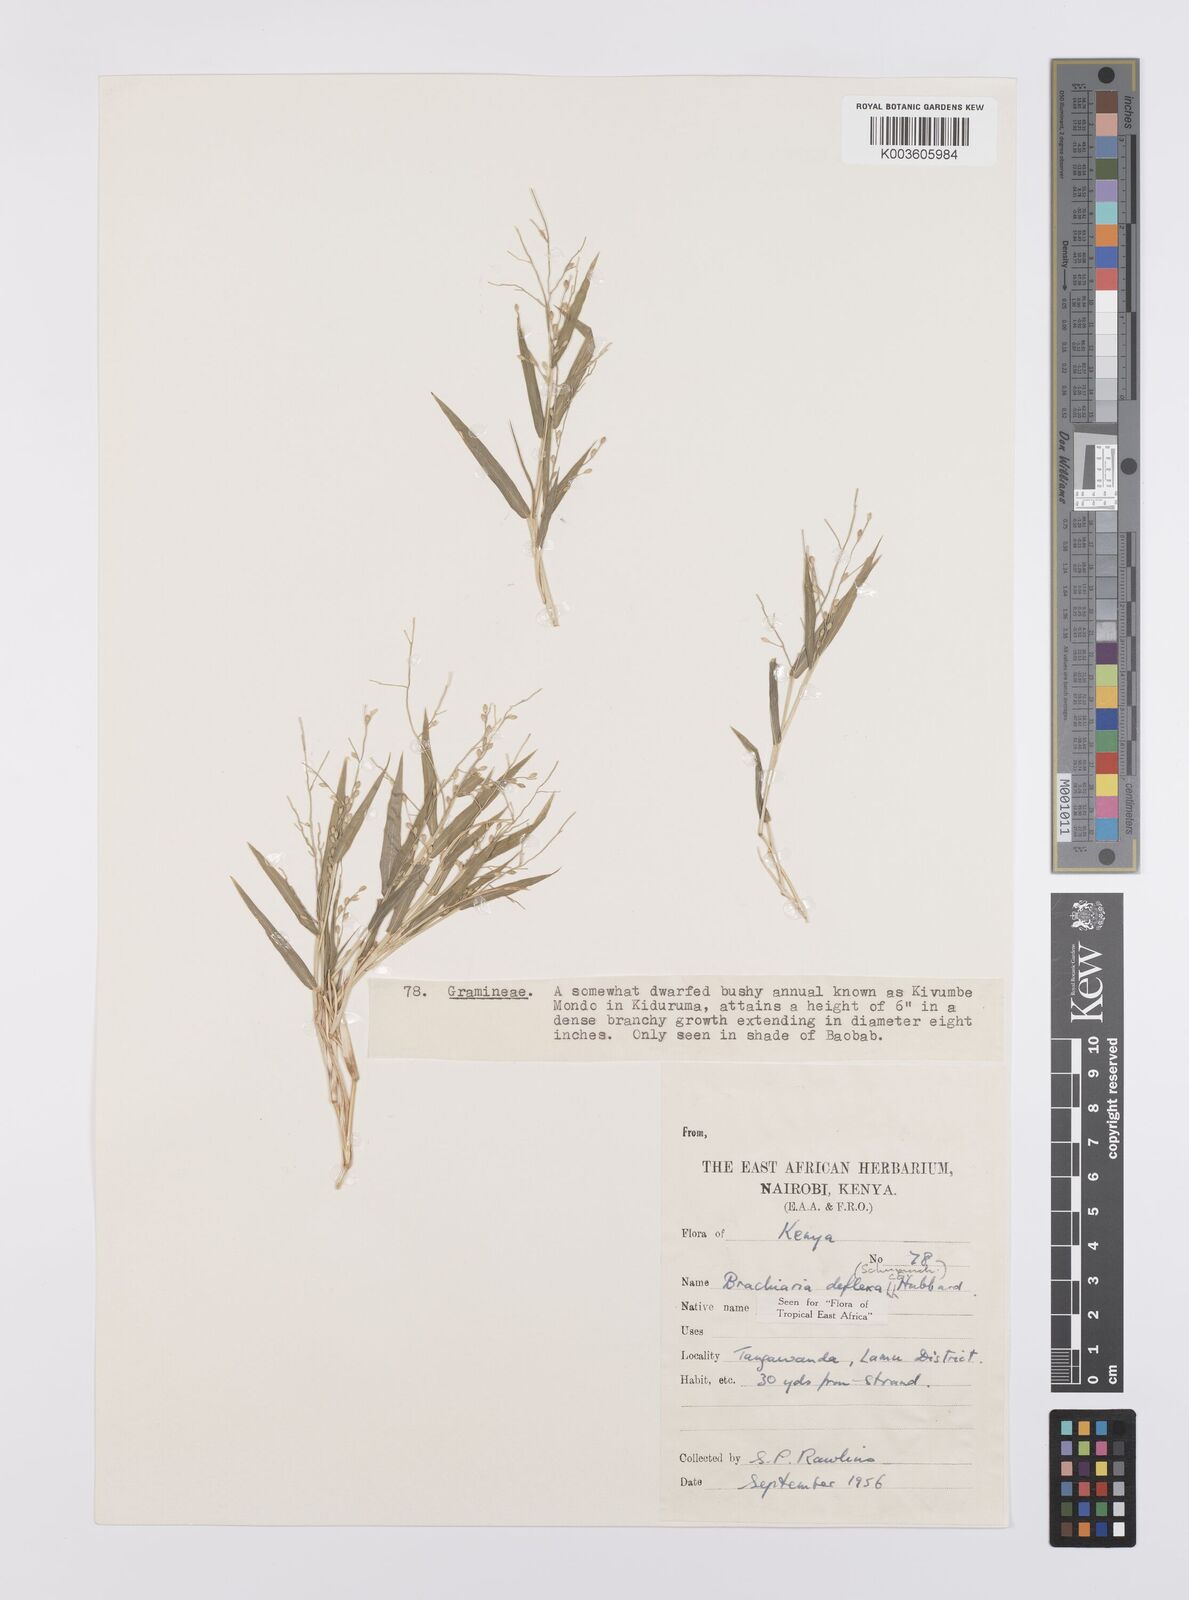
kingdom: Plantae
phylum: Tracheophyta
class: Liliopsida
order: Poales
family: Poaceae
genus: Urochloa
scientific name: Urochloa deflexa
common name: Guinea millet
